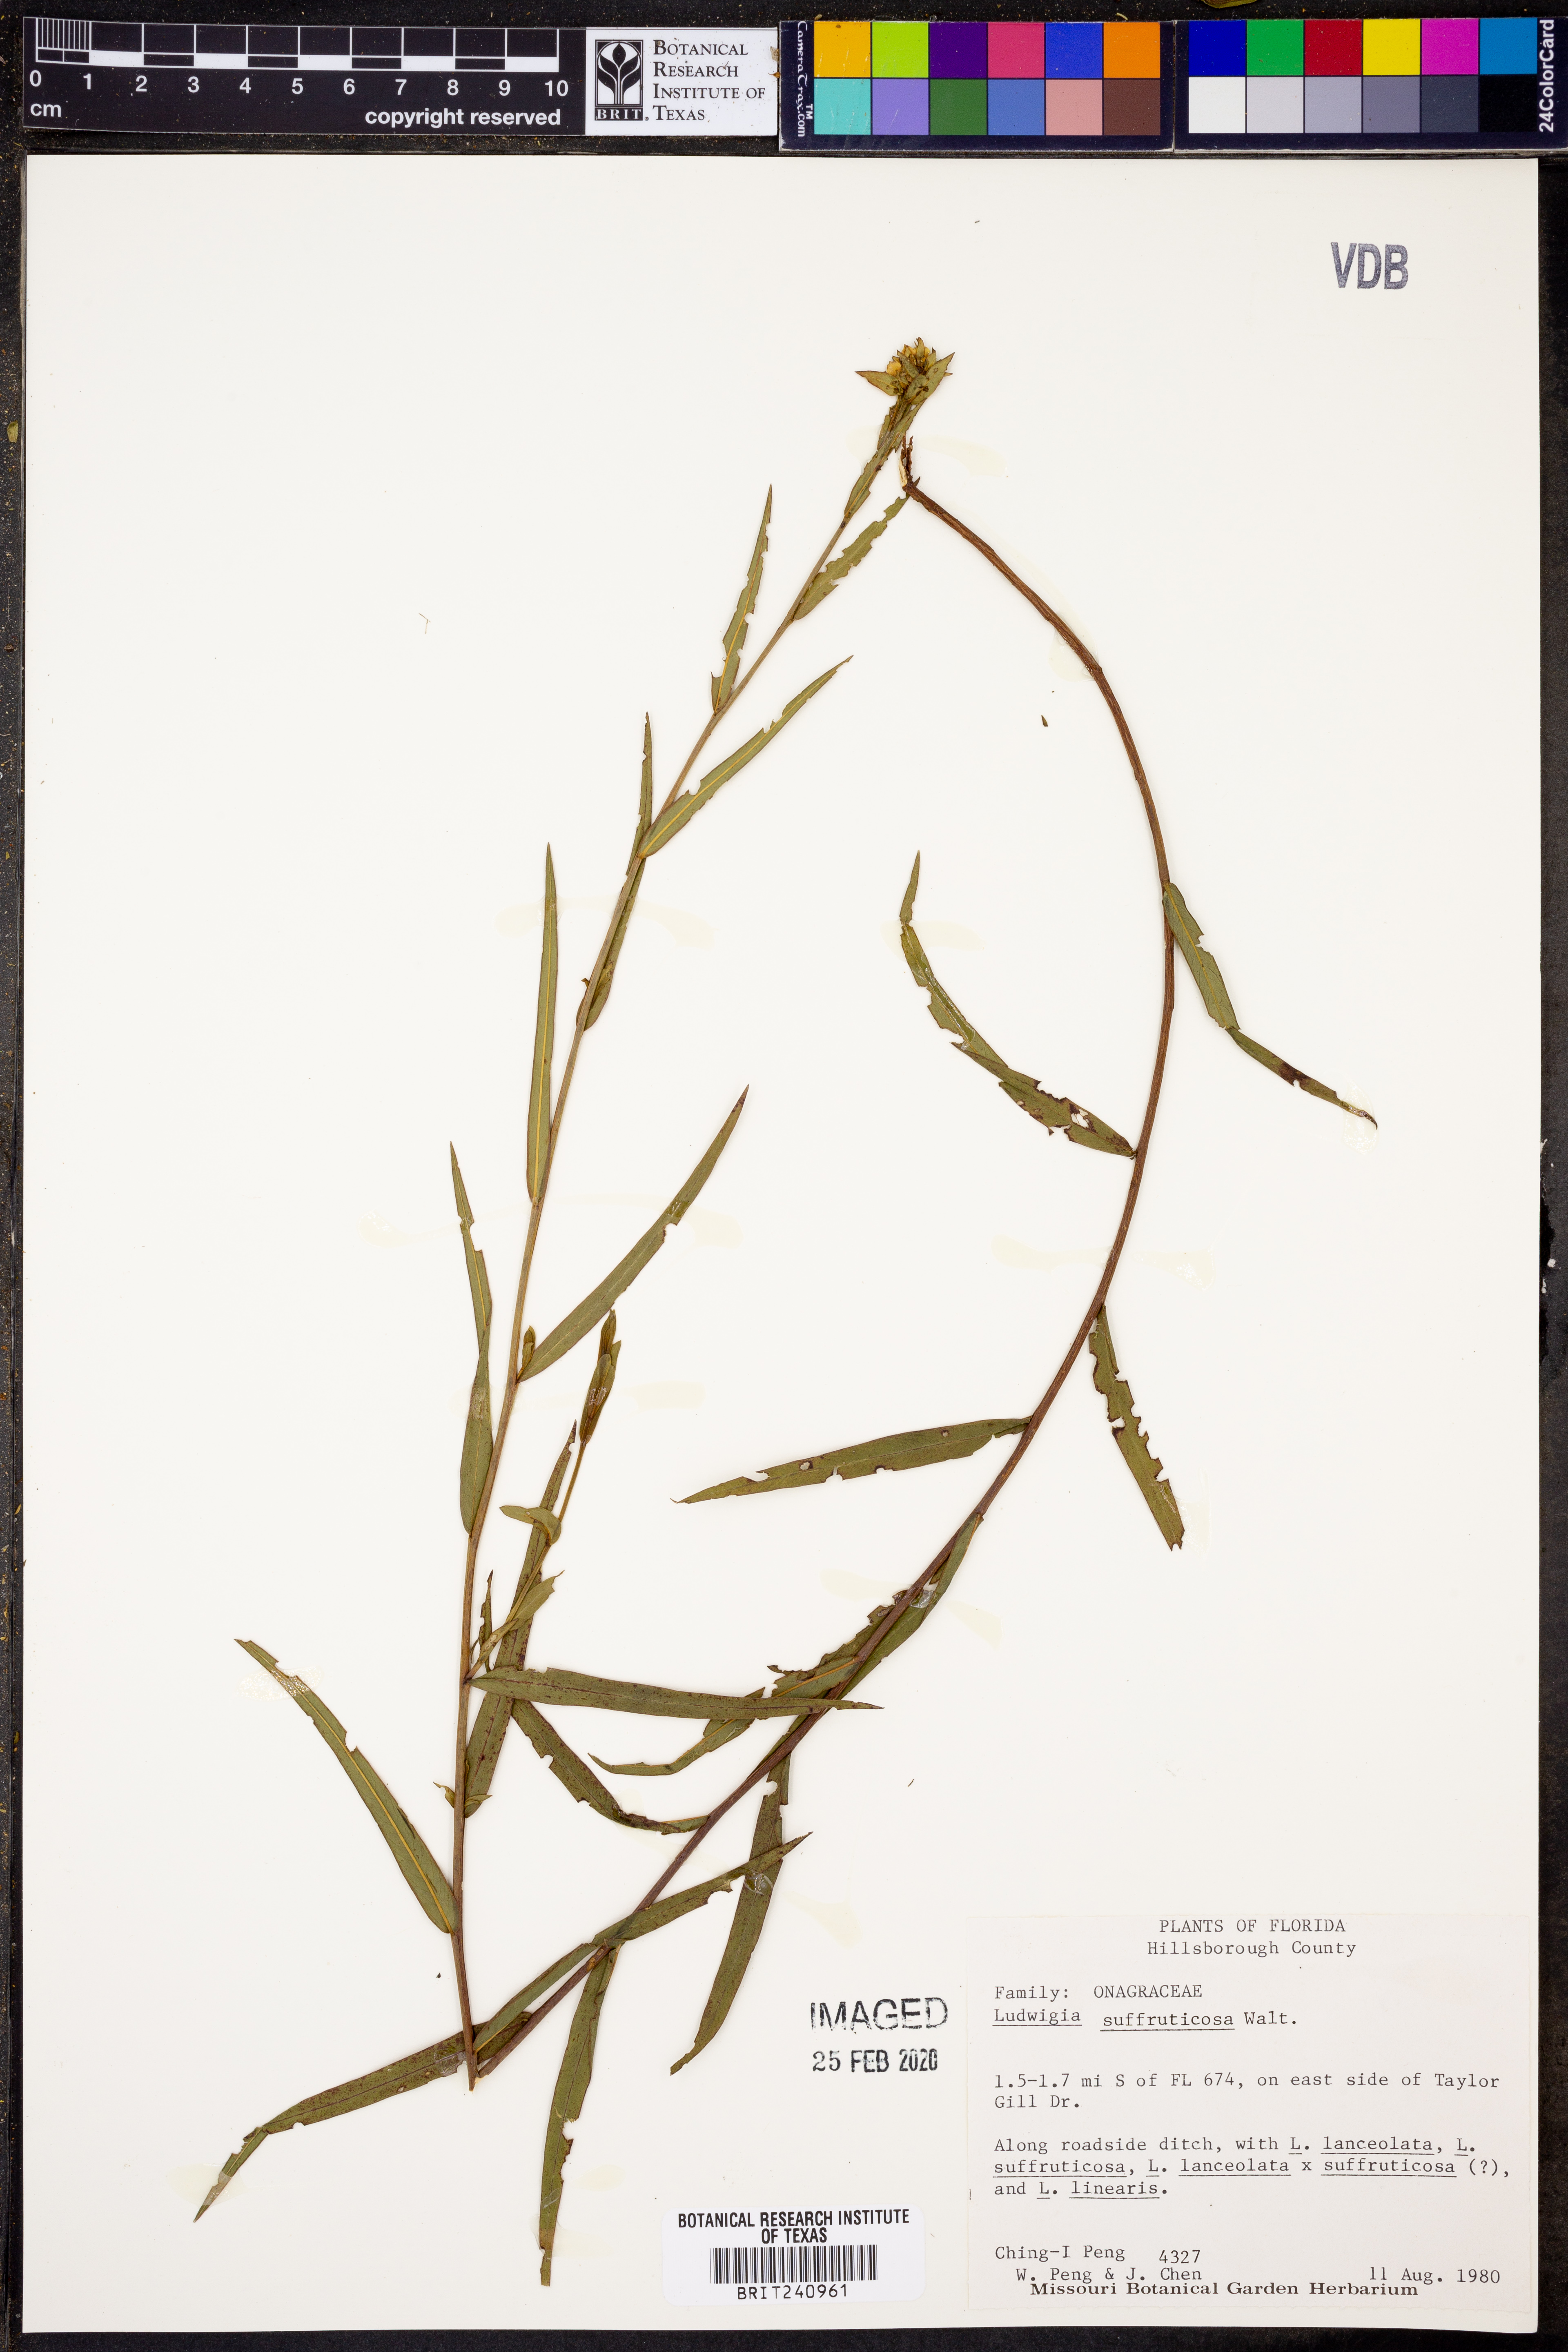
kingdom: Plantae
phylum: Tracheophyta
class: Magnoliopsida
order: Myrtales
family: Onagraceae
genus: Ludwigia
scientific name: Ludwigia suffruticosa
